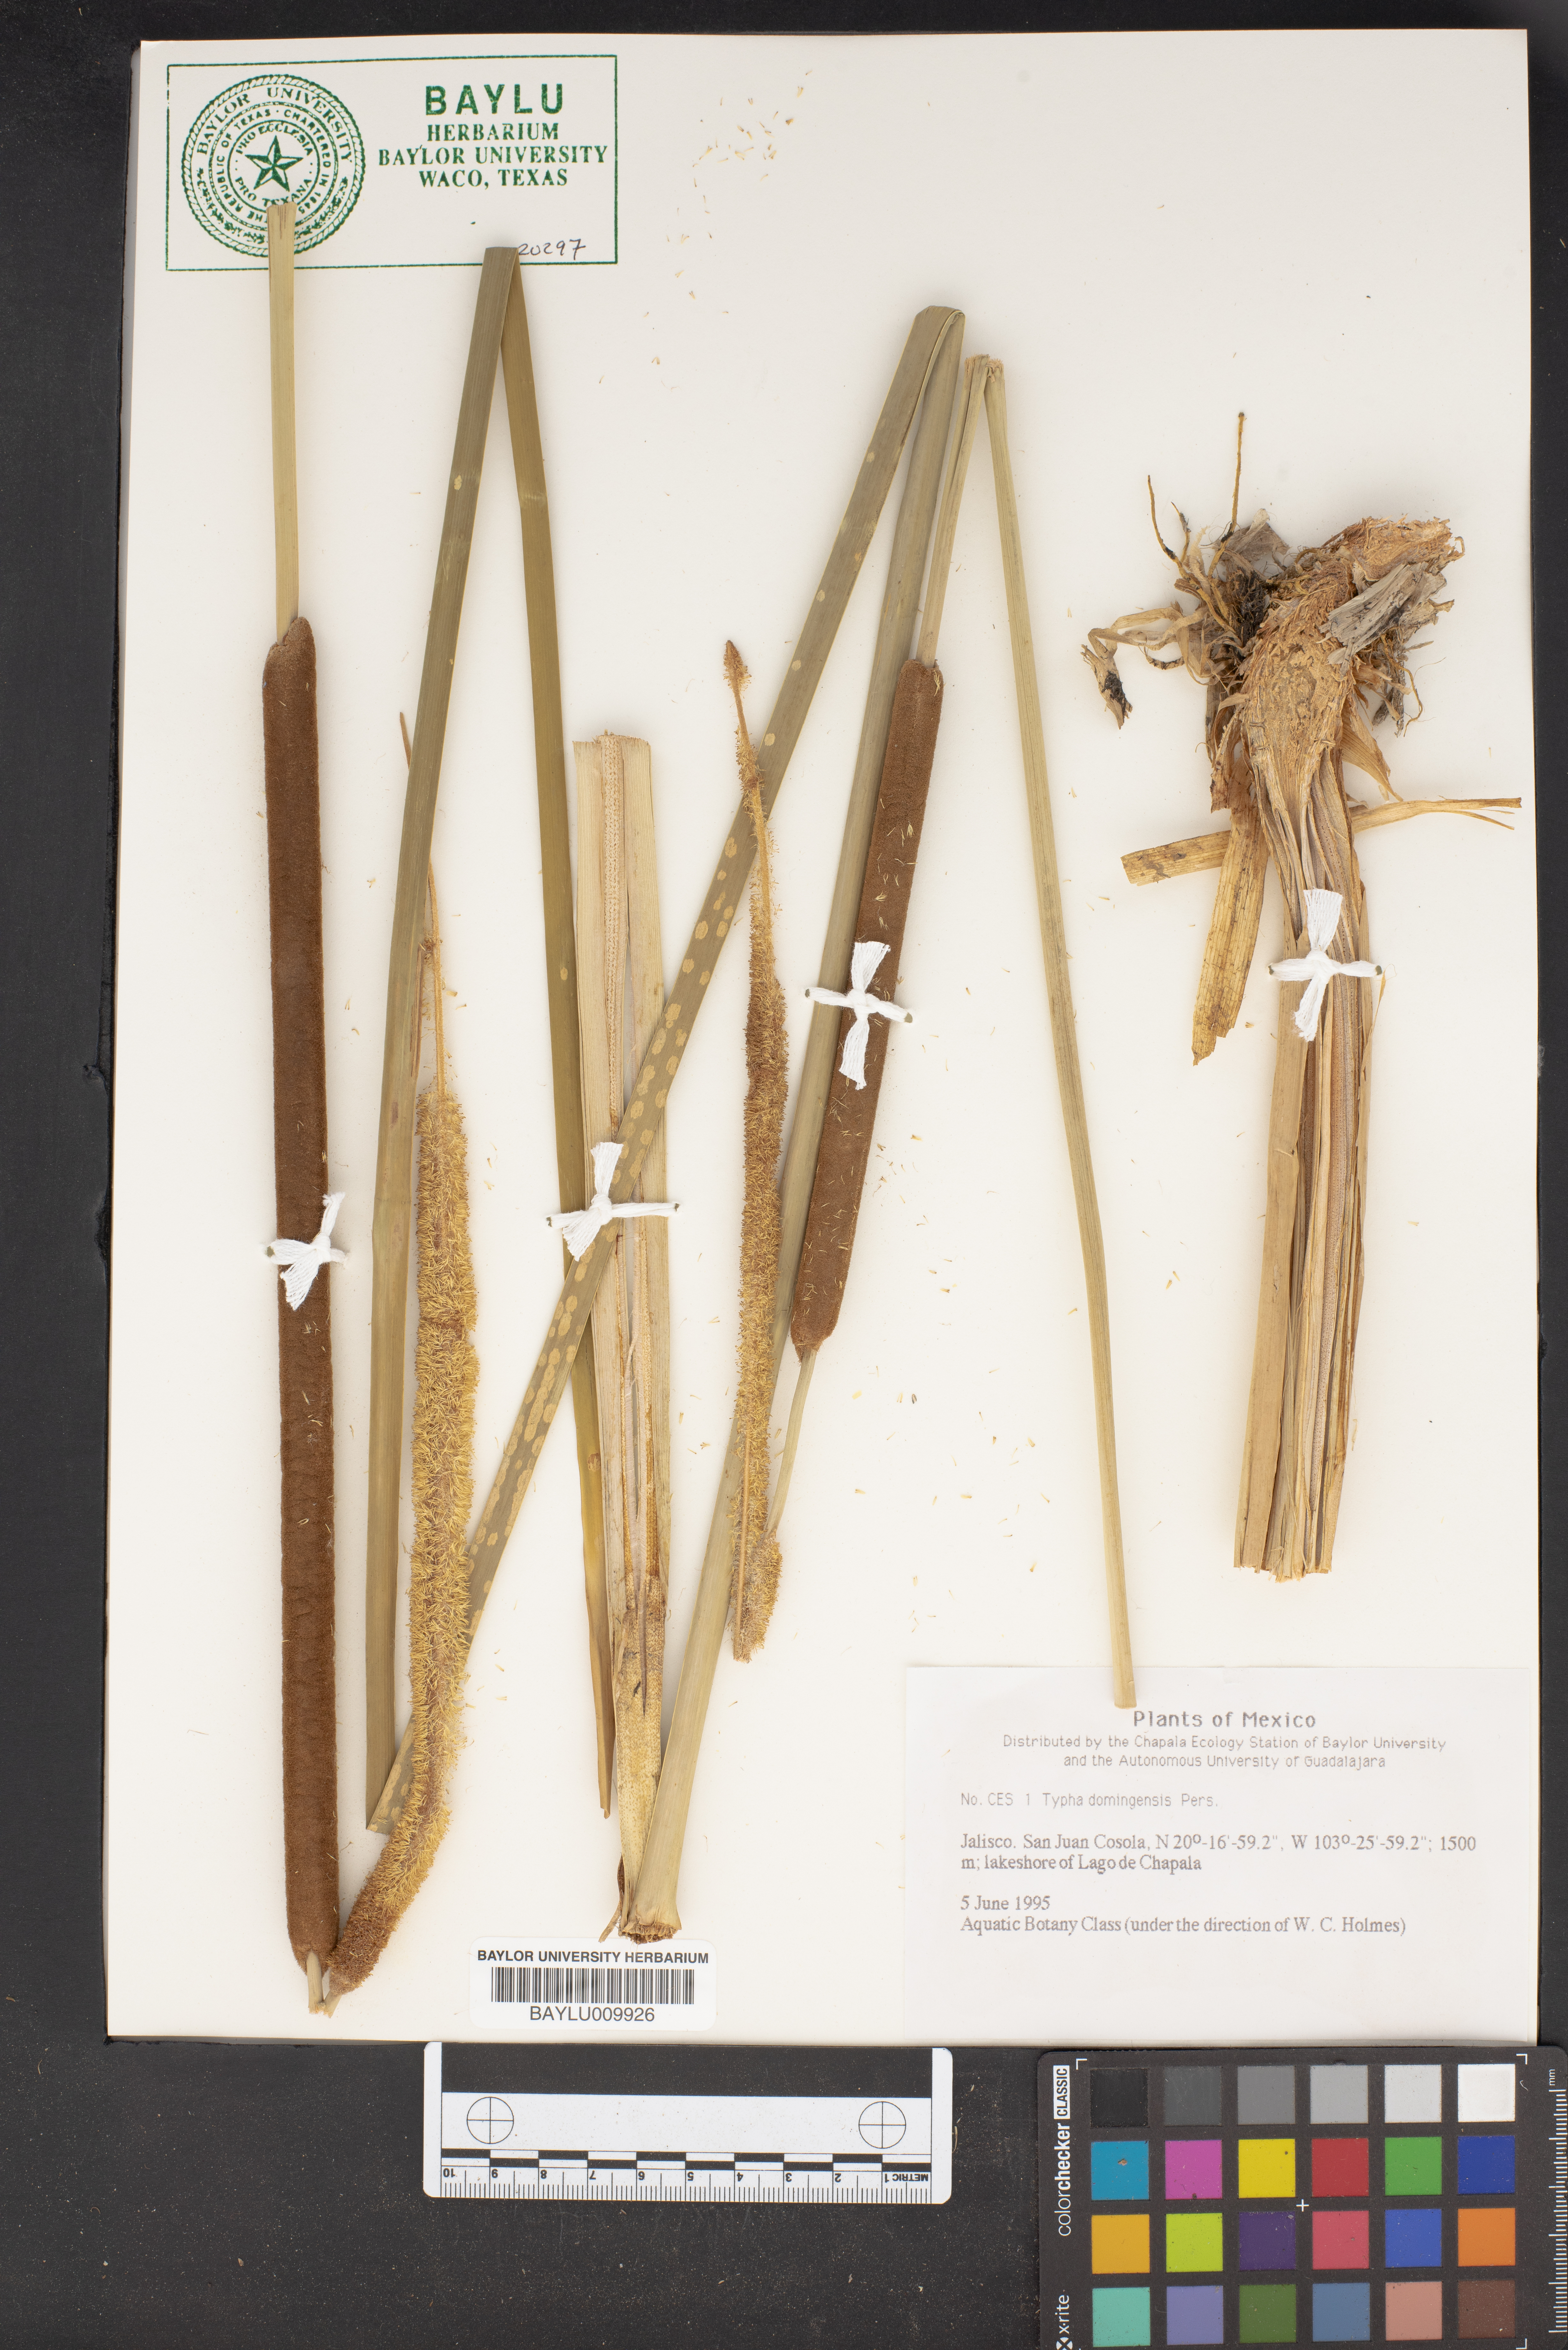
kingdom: Plantae
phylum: Tracheophyta
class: Liliopsida
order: Poales
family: Typhaceae
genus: Typha
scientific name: Typha domingensis
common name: Southern cattail
